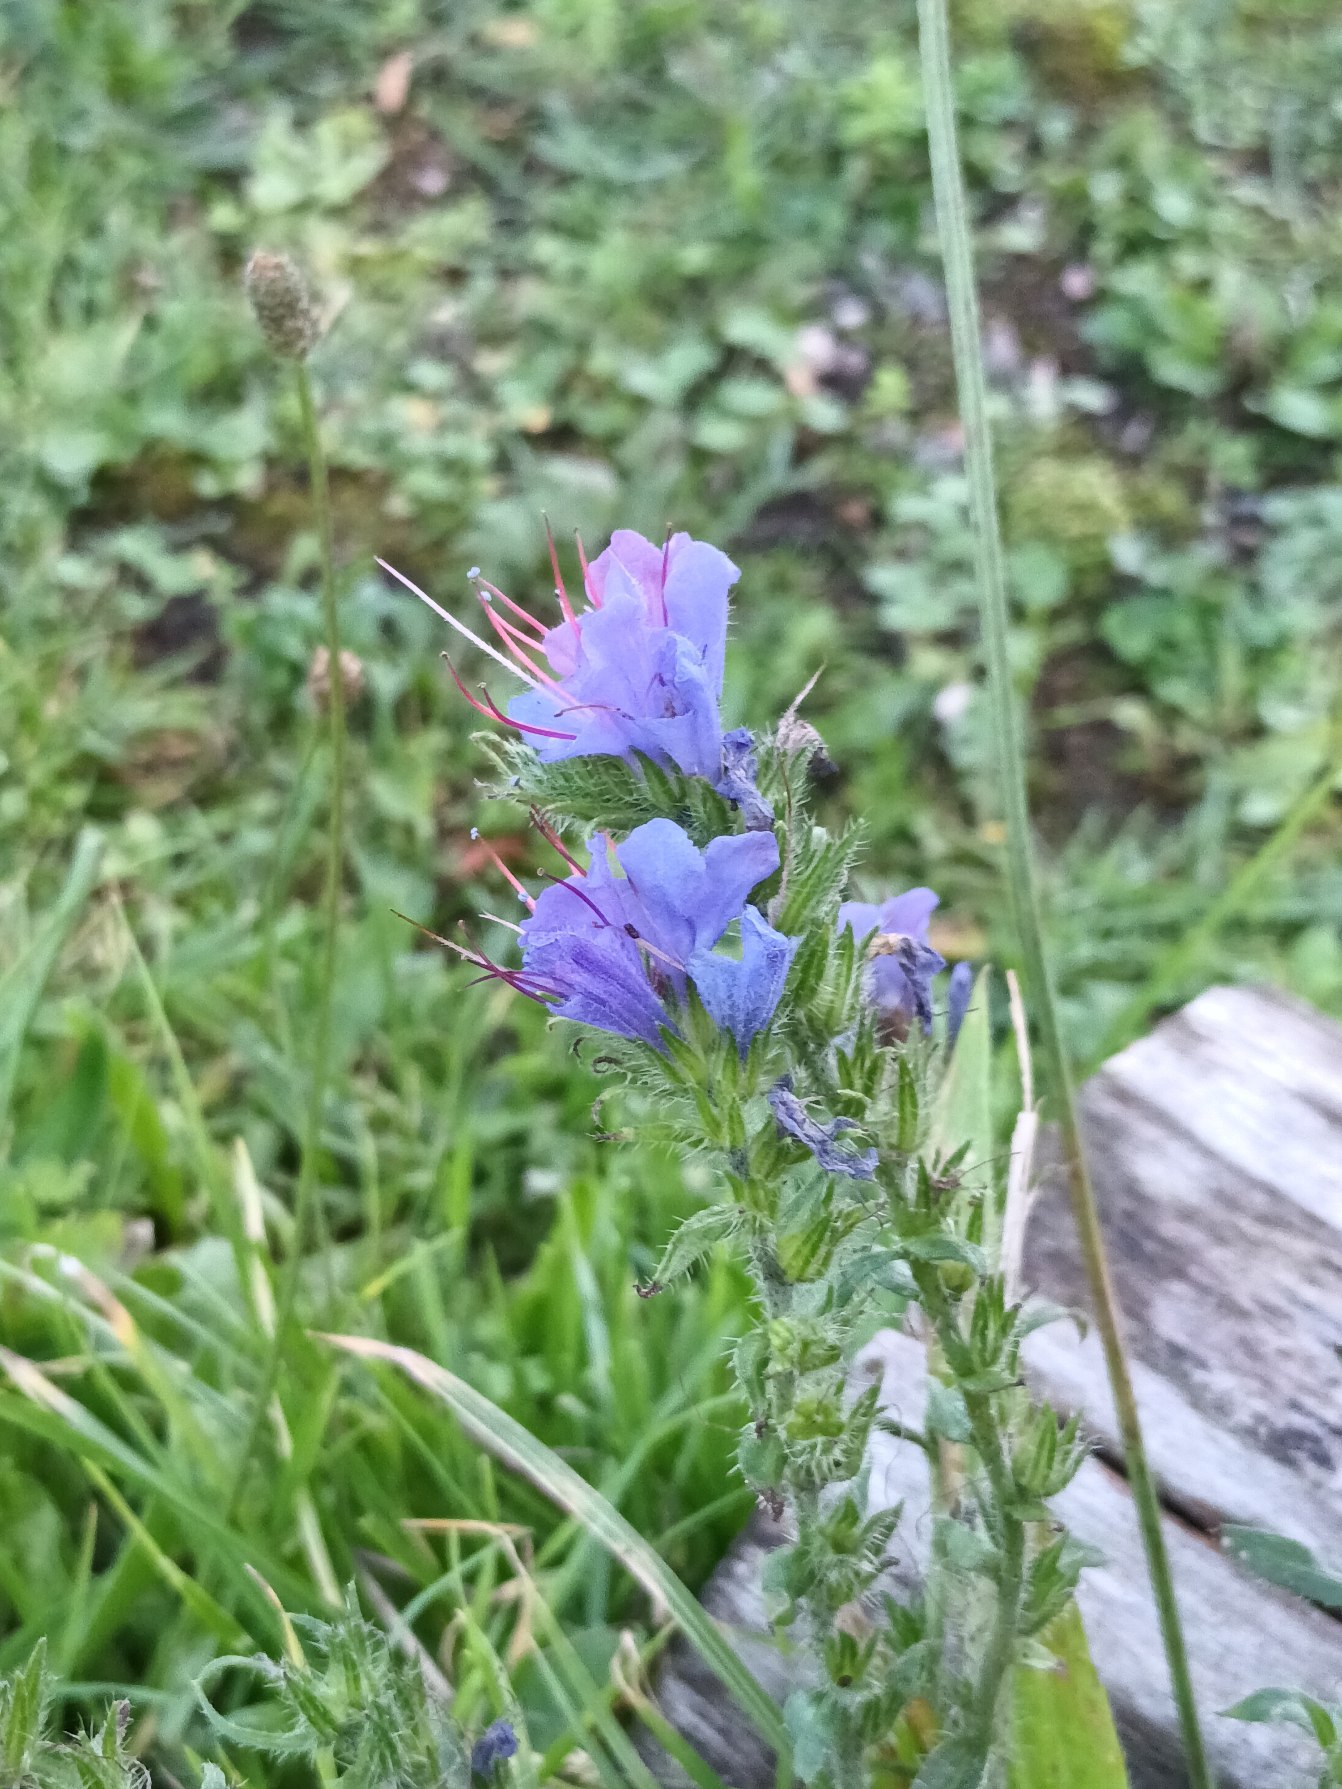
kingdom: Plantae
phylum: Tracheophyta
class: Magnoliopsida
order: Boraginales
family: Boraginaceae
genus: Echium
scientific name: Echium vulgare
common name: Slangehoved
